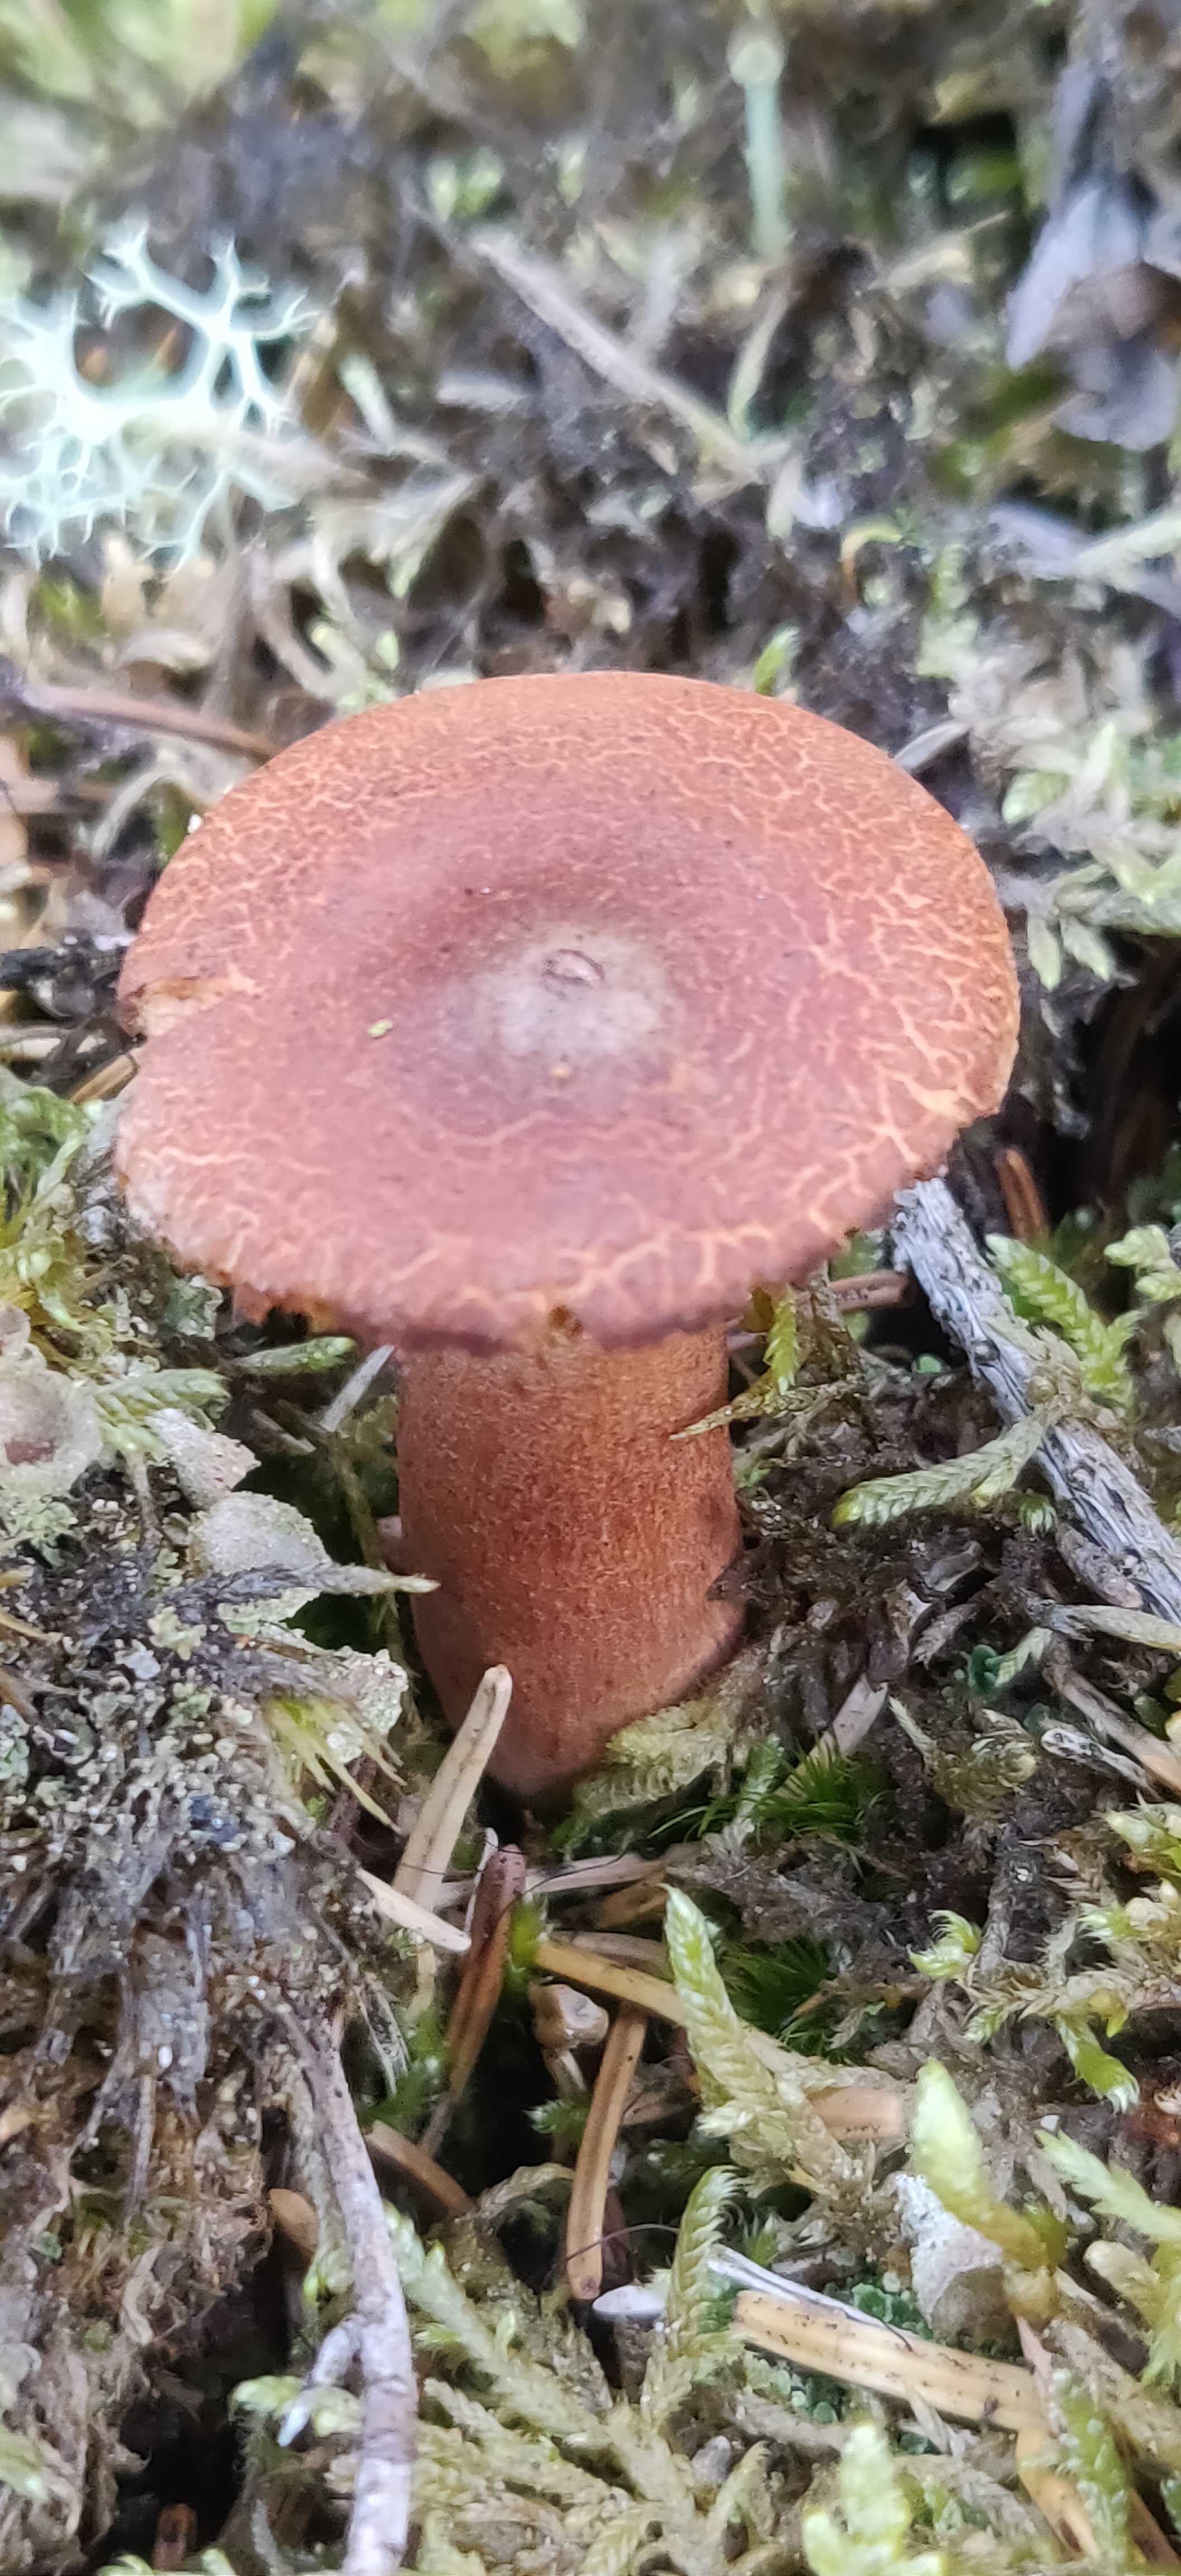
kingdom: Fungi
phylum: Basidiomycota
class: Agaricomycetes
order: Russulales
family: Russulaceae
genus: Lactarius
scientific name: Lactarius rufus
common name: rødbrun mælkehat
